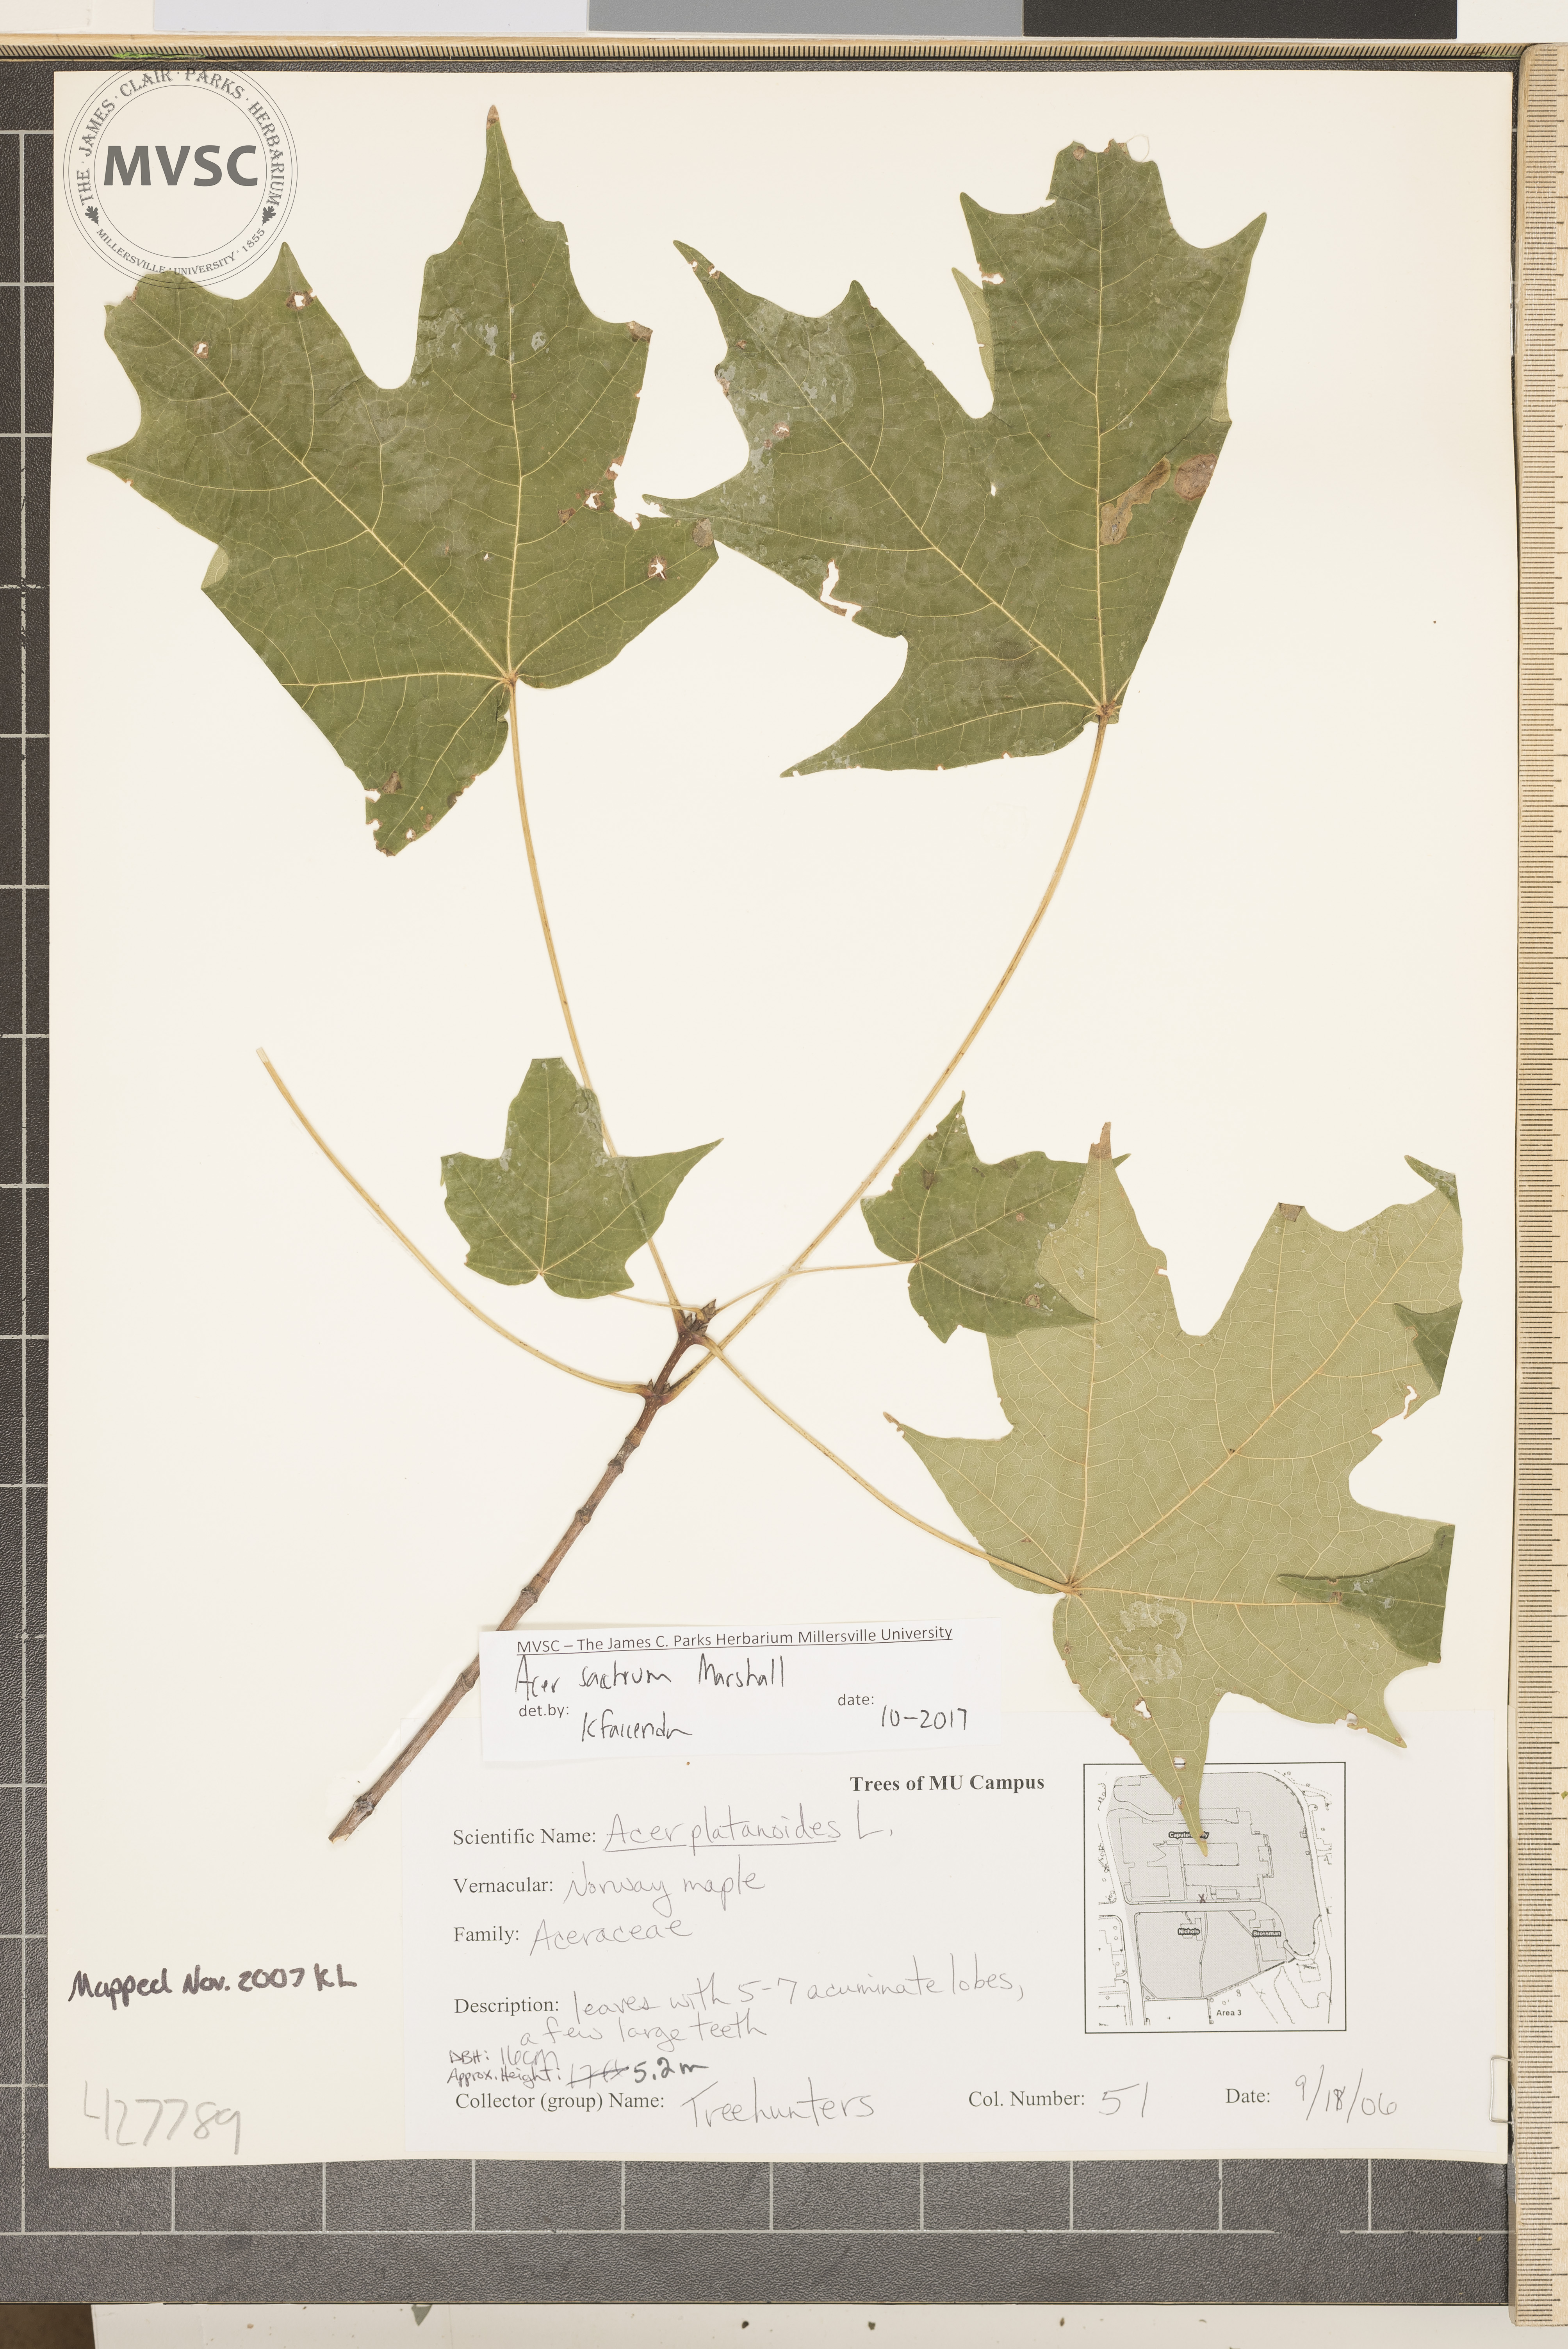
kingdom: Plantae
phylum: Tracheophyta
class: Magnoliopsida
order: Sapindales
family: Sapindaceae
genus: Acer
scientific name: Acer saccharum
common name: Sugar maple
